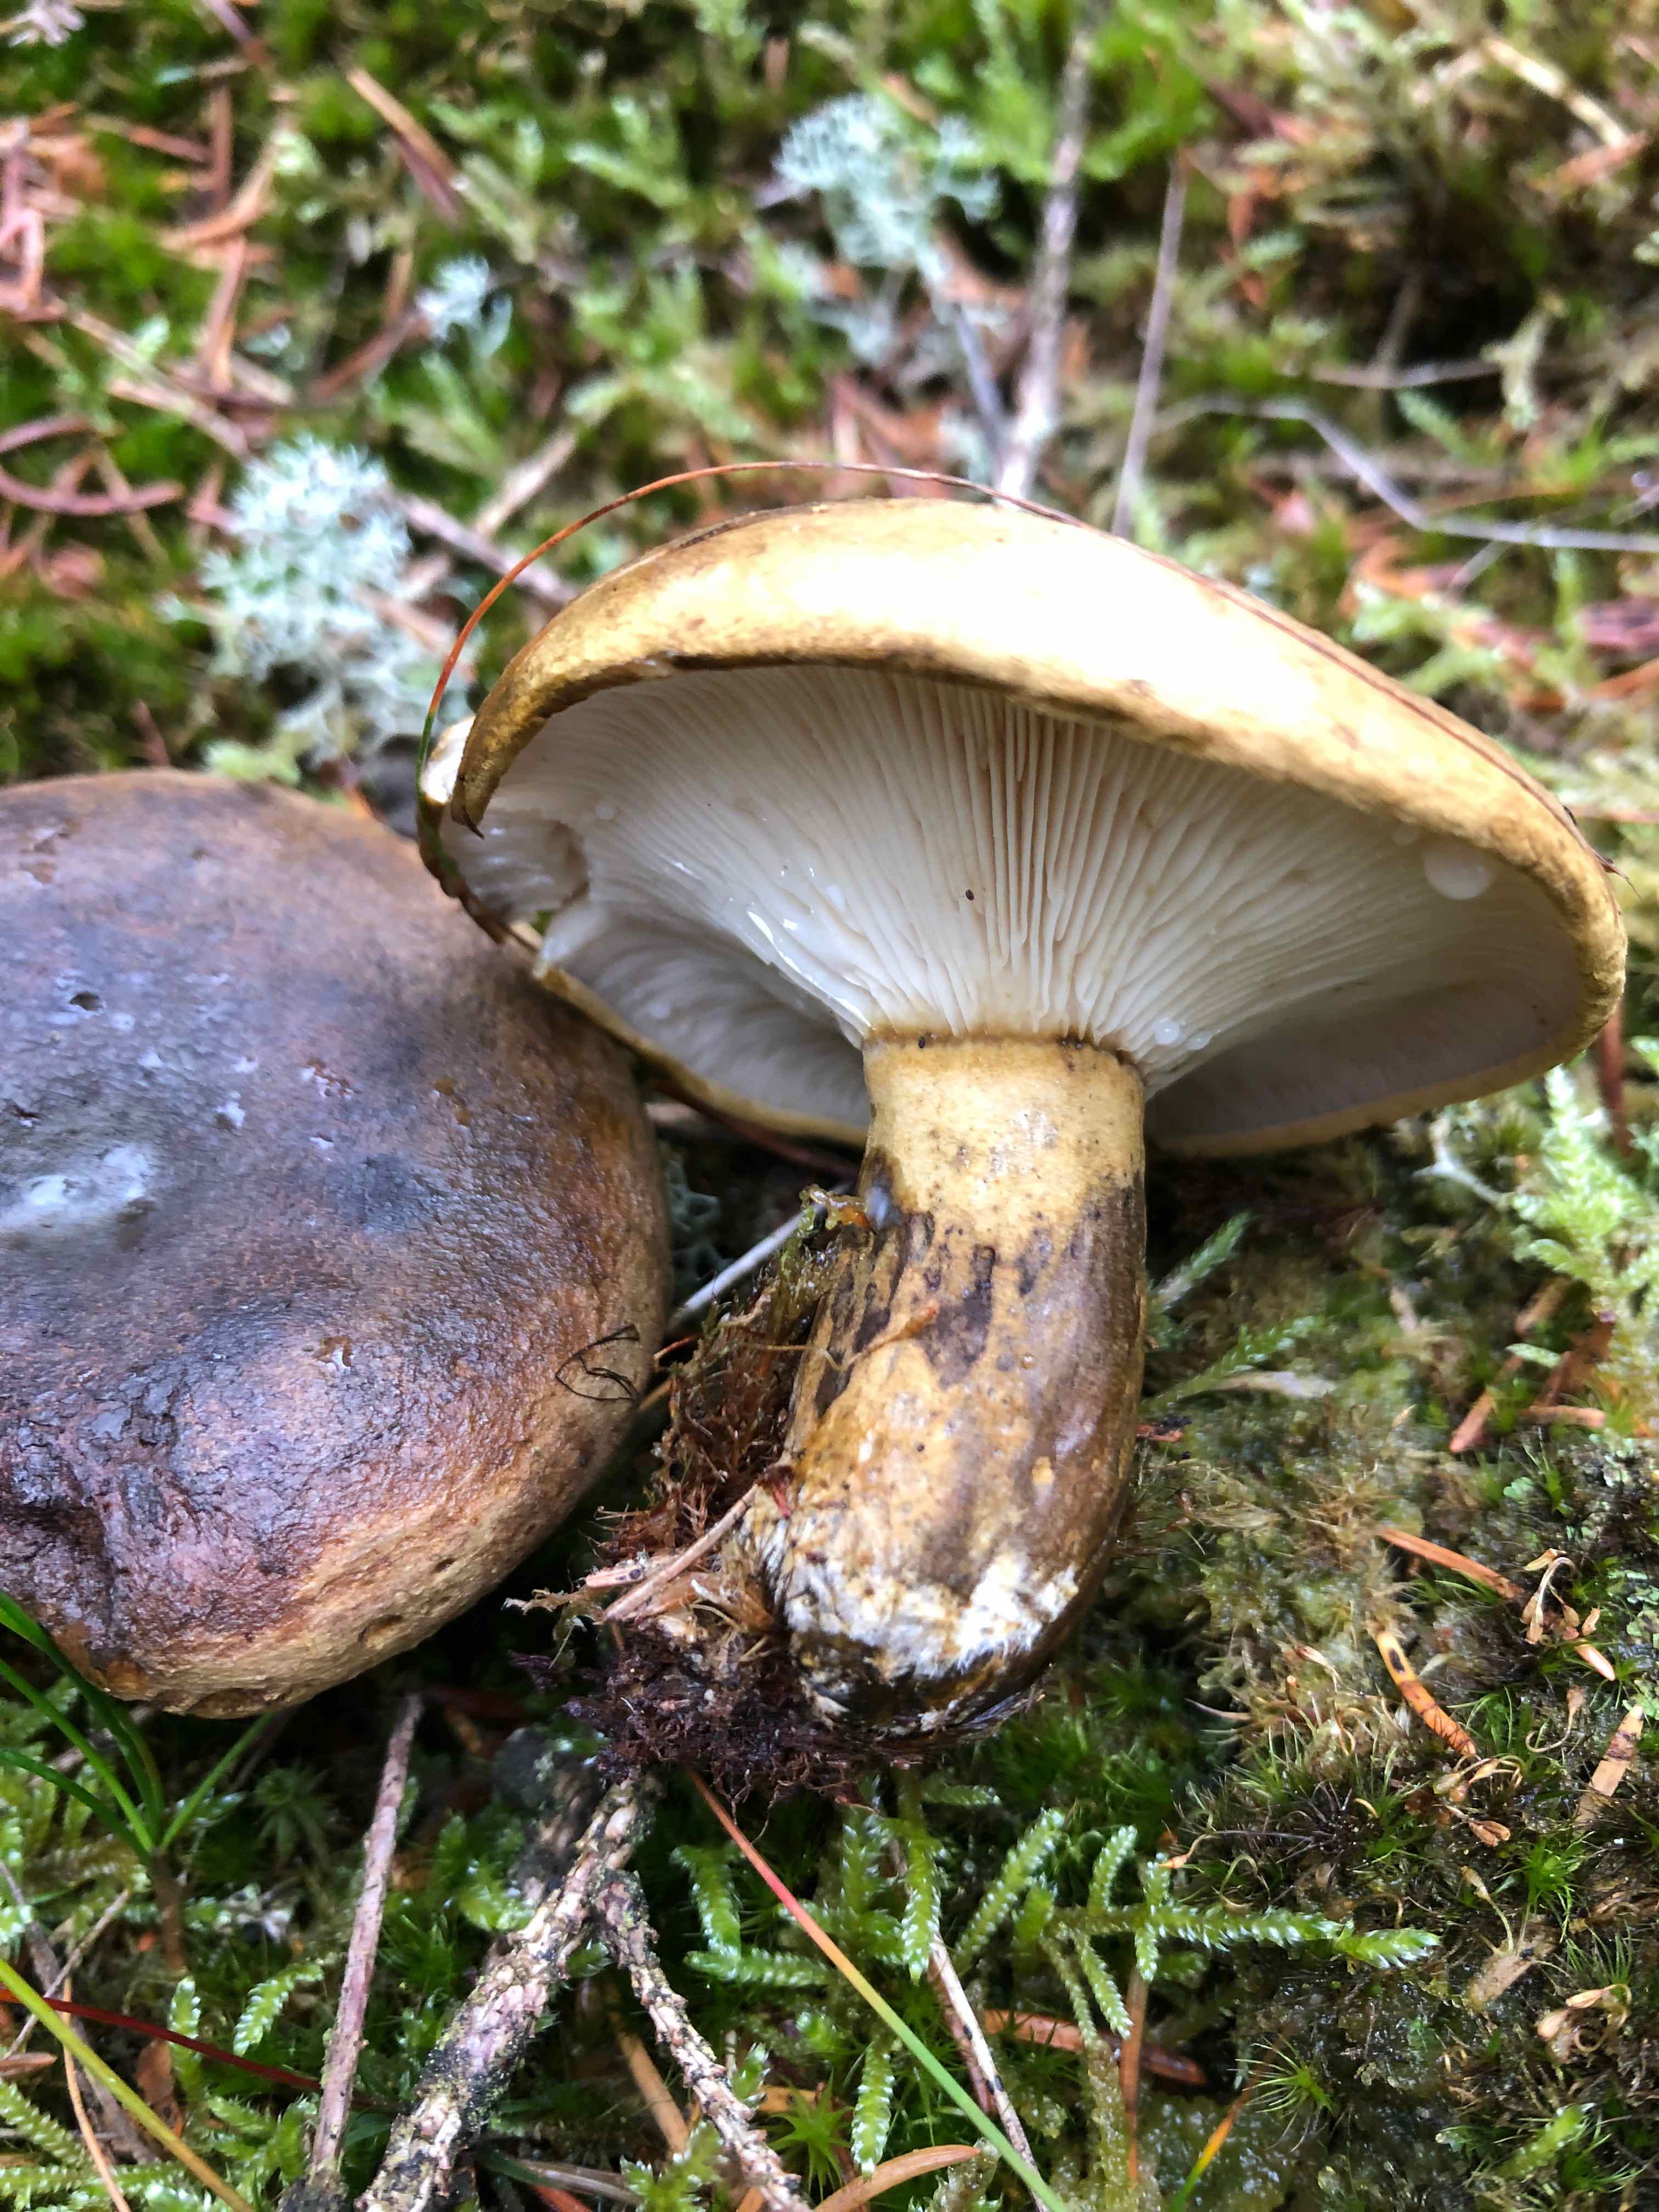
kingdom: Fungi
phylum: Basidiomycota
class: Agaricomycetes
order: Russulales
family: Russulaceae
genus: Lactarius
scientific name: Lactarius necator
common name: manddraber-mælkehat
